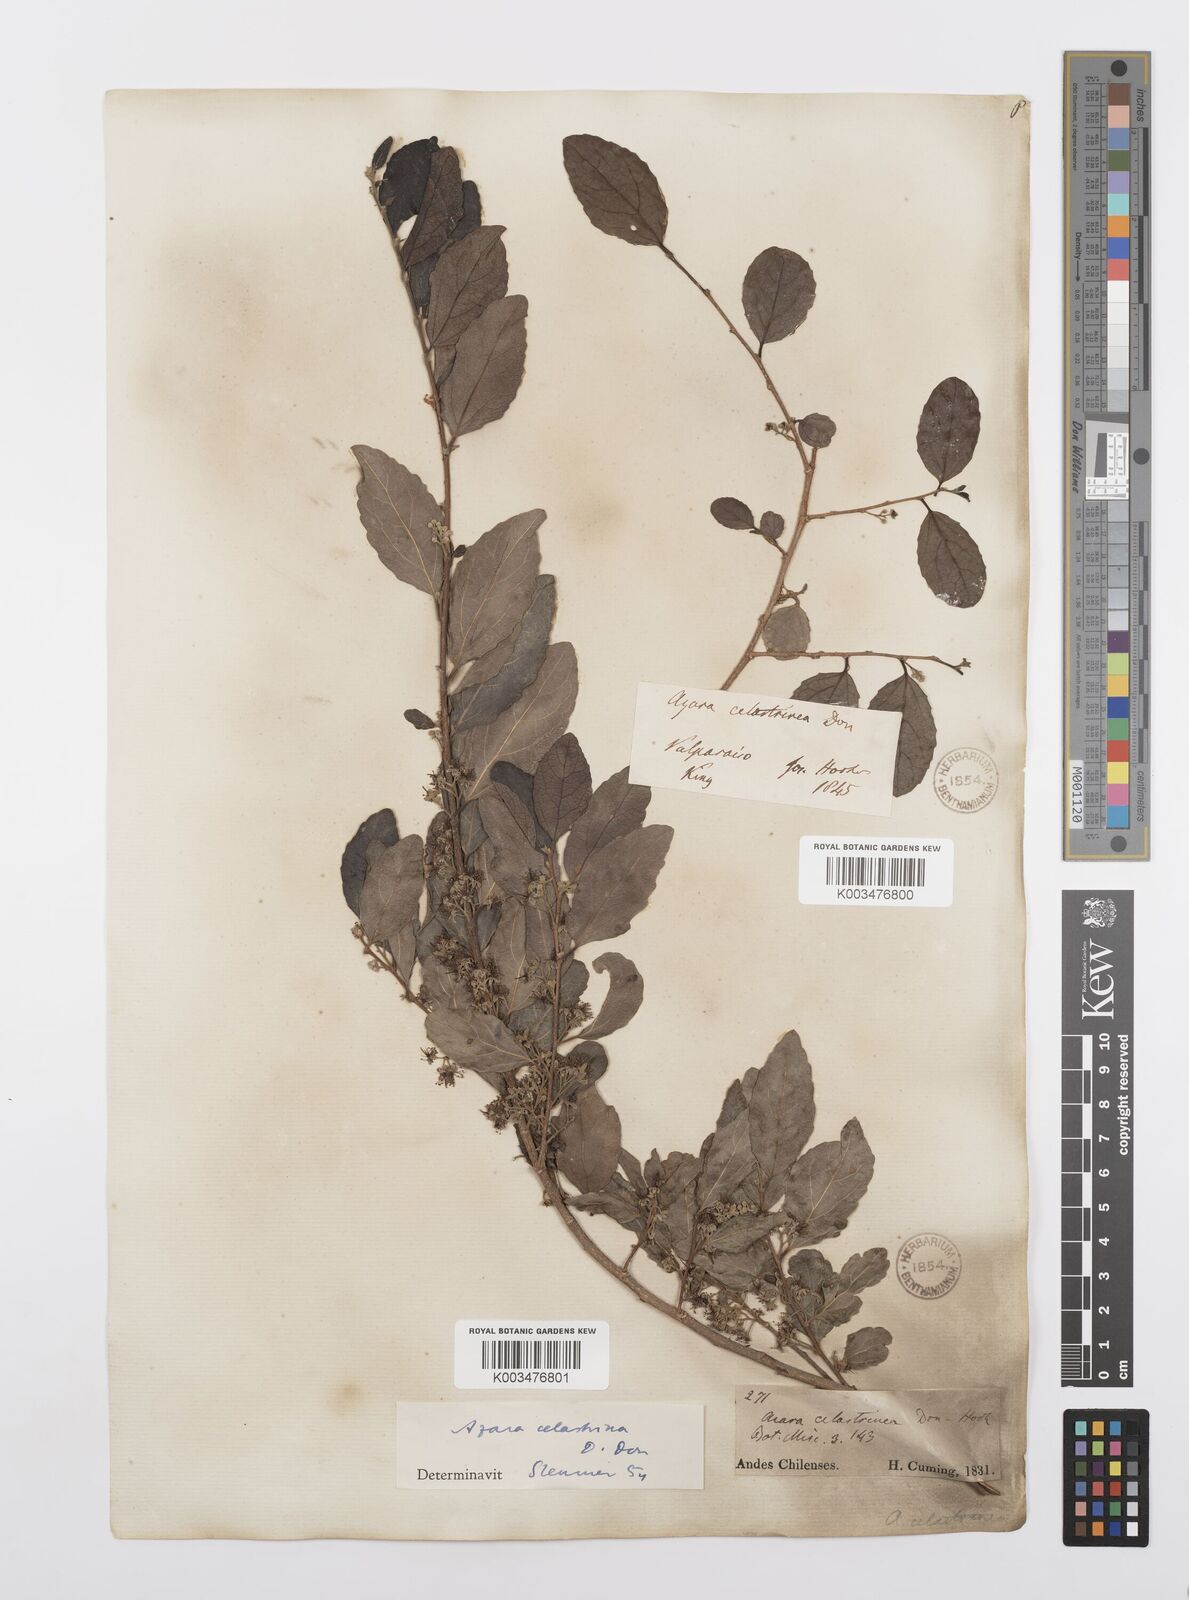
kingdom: Plantae
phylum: Tracheophyta
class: Magnoliopsida
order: Malpighiales
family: Salicaceae
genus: Azara
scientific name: Azara celastrina
